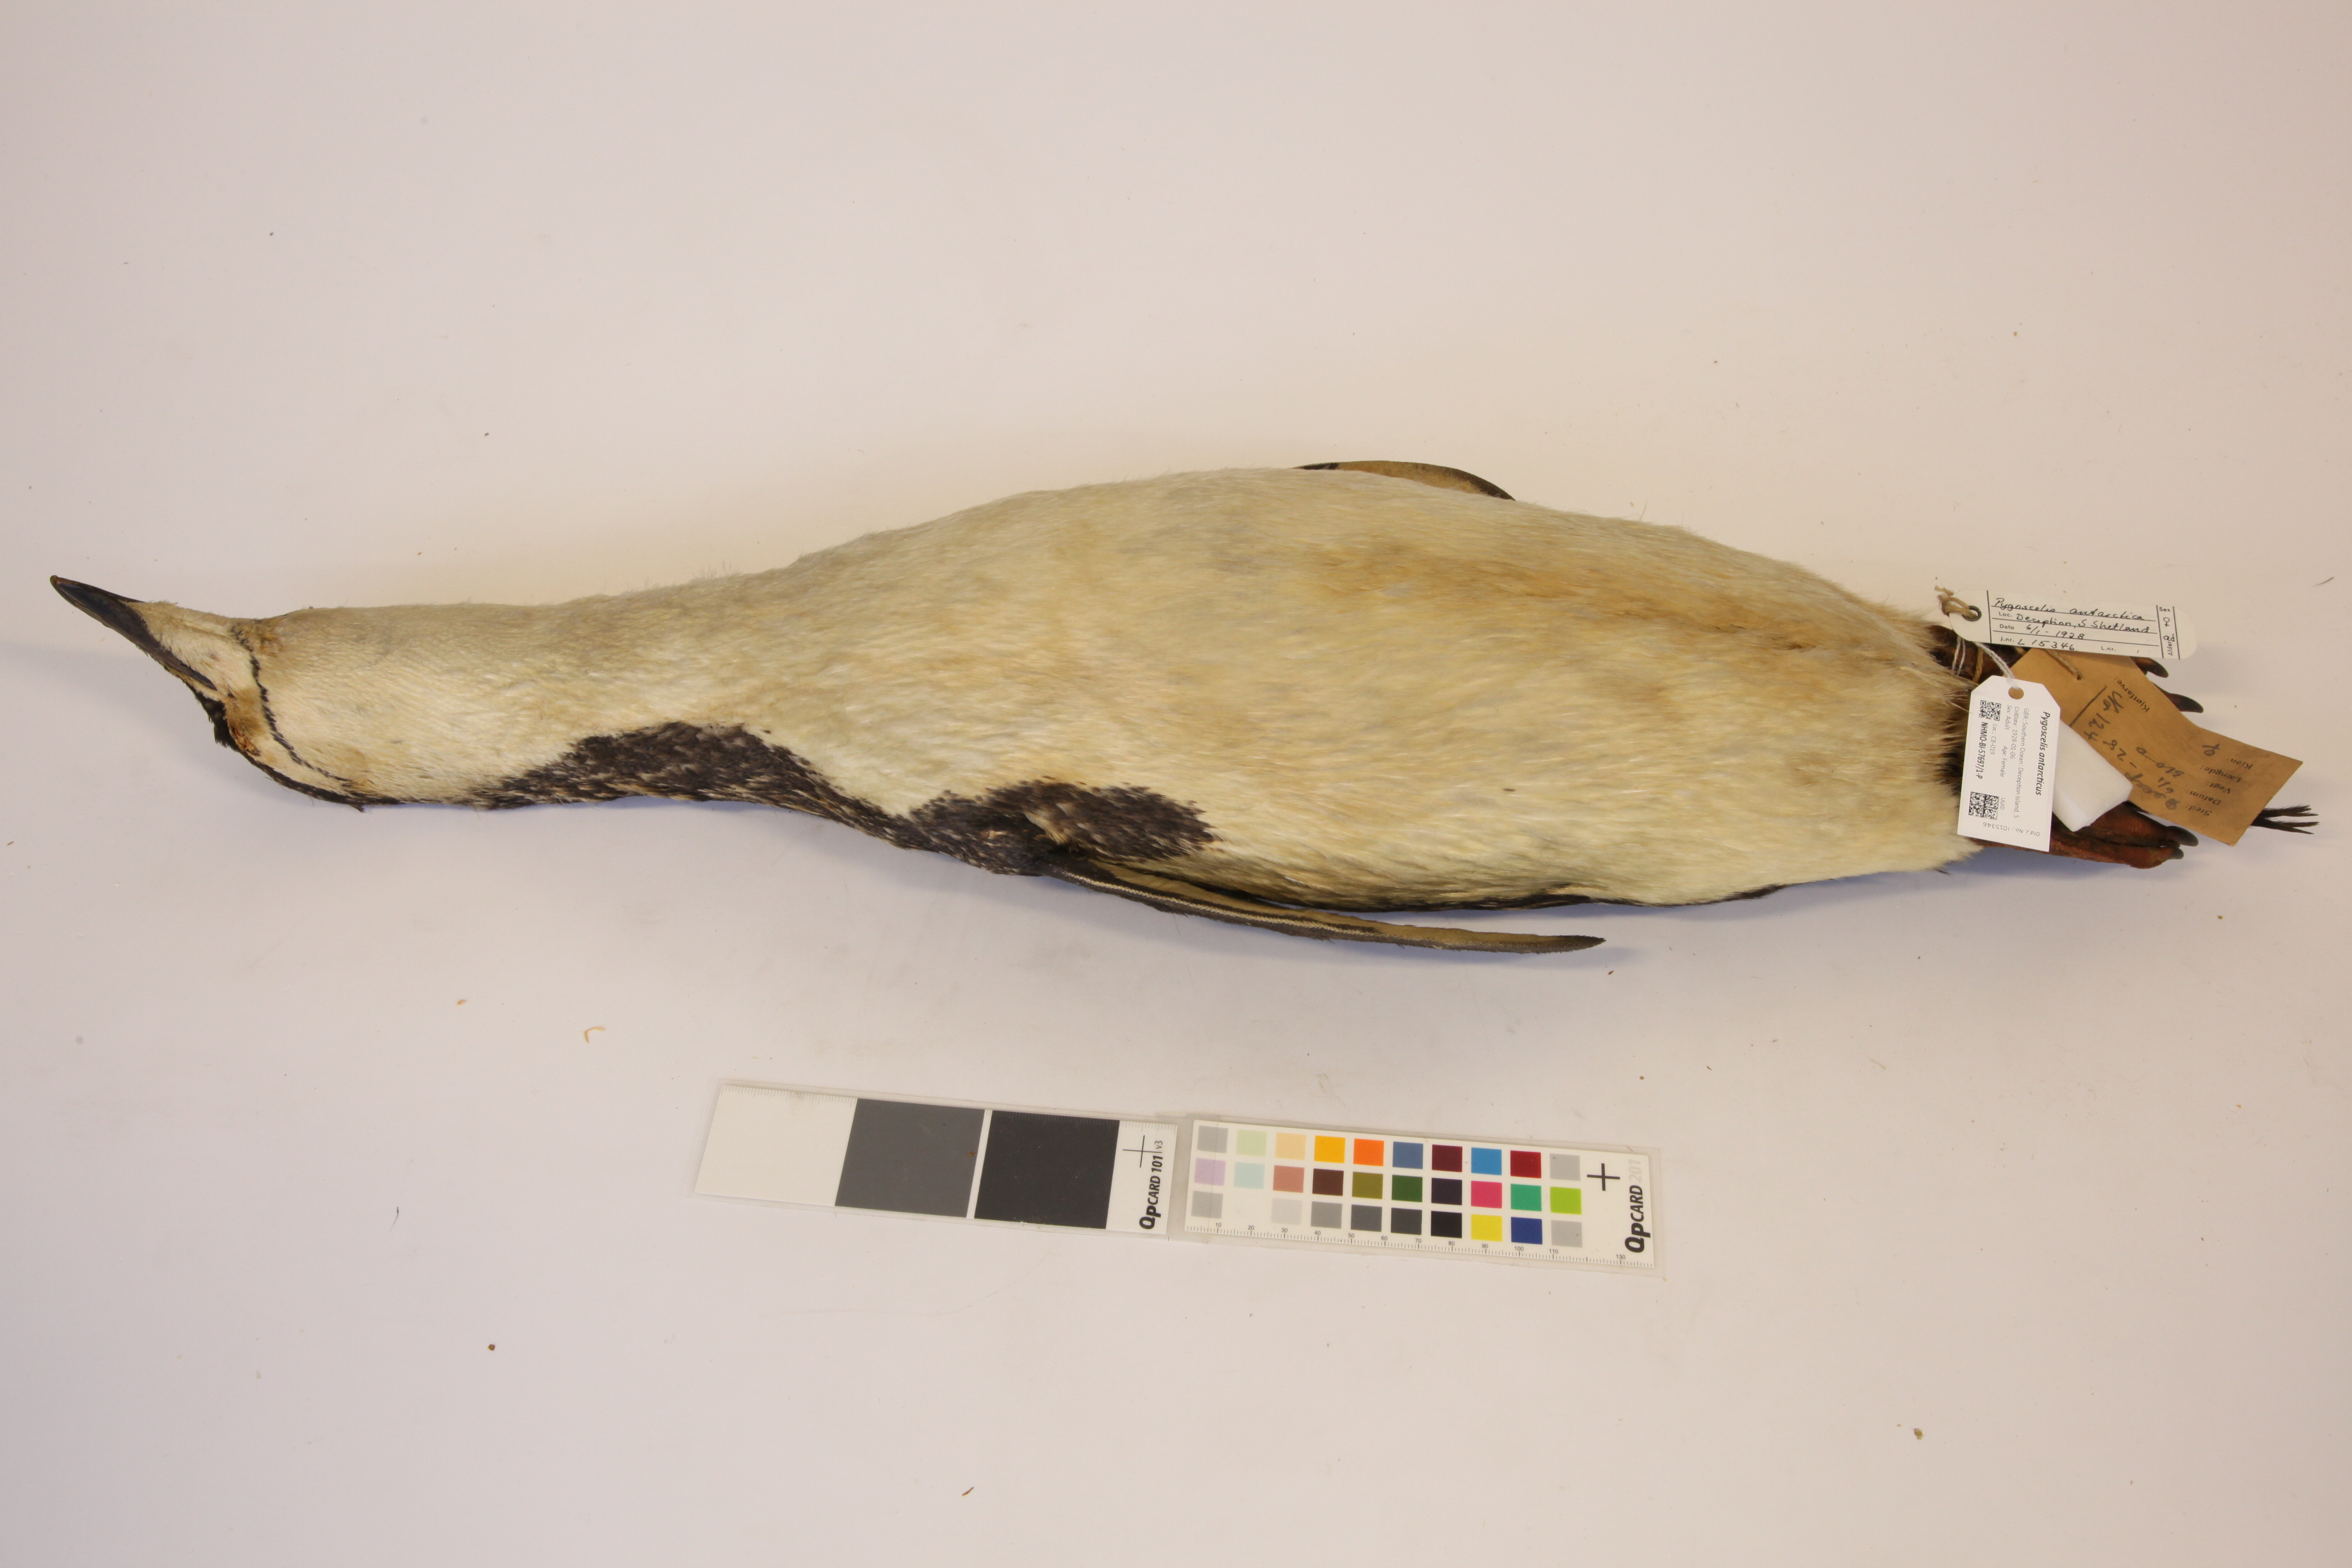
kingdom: Animalia
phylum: Chordata
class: Aves
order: Sphenisciformes
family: Spheniscidae
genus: Pygoscelis
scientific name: Pygoscelis antarcticus
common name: Chinstrap penguin
